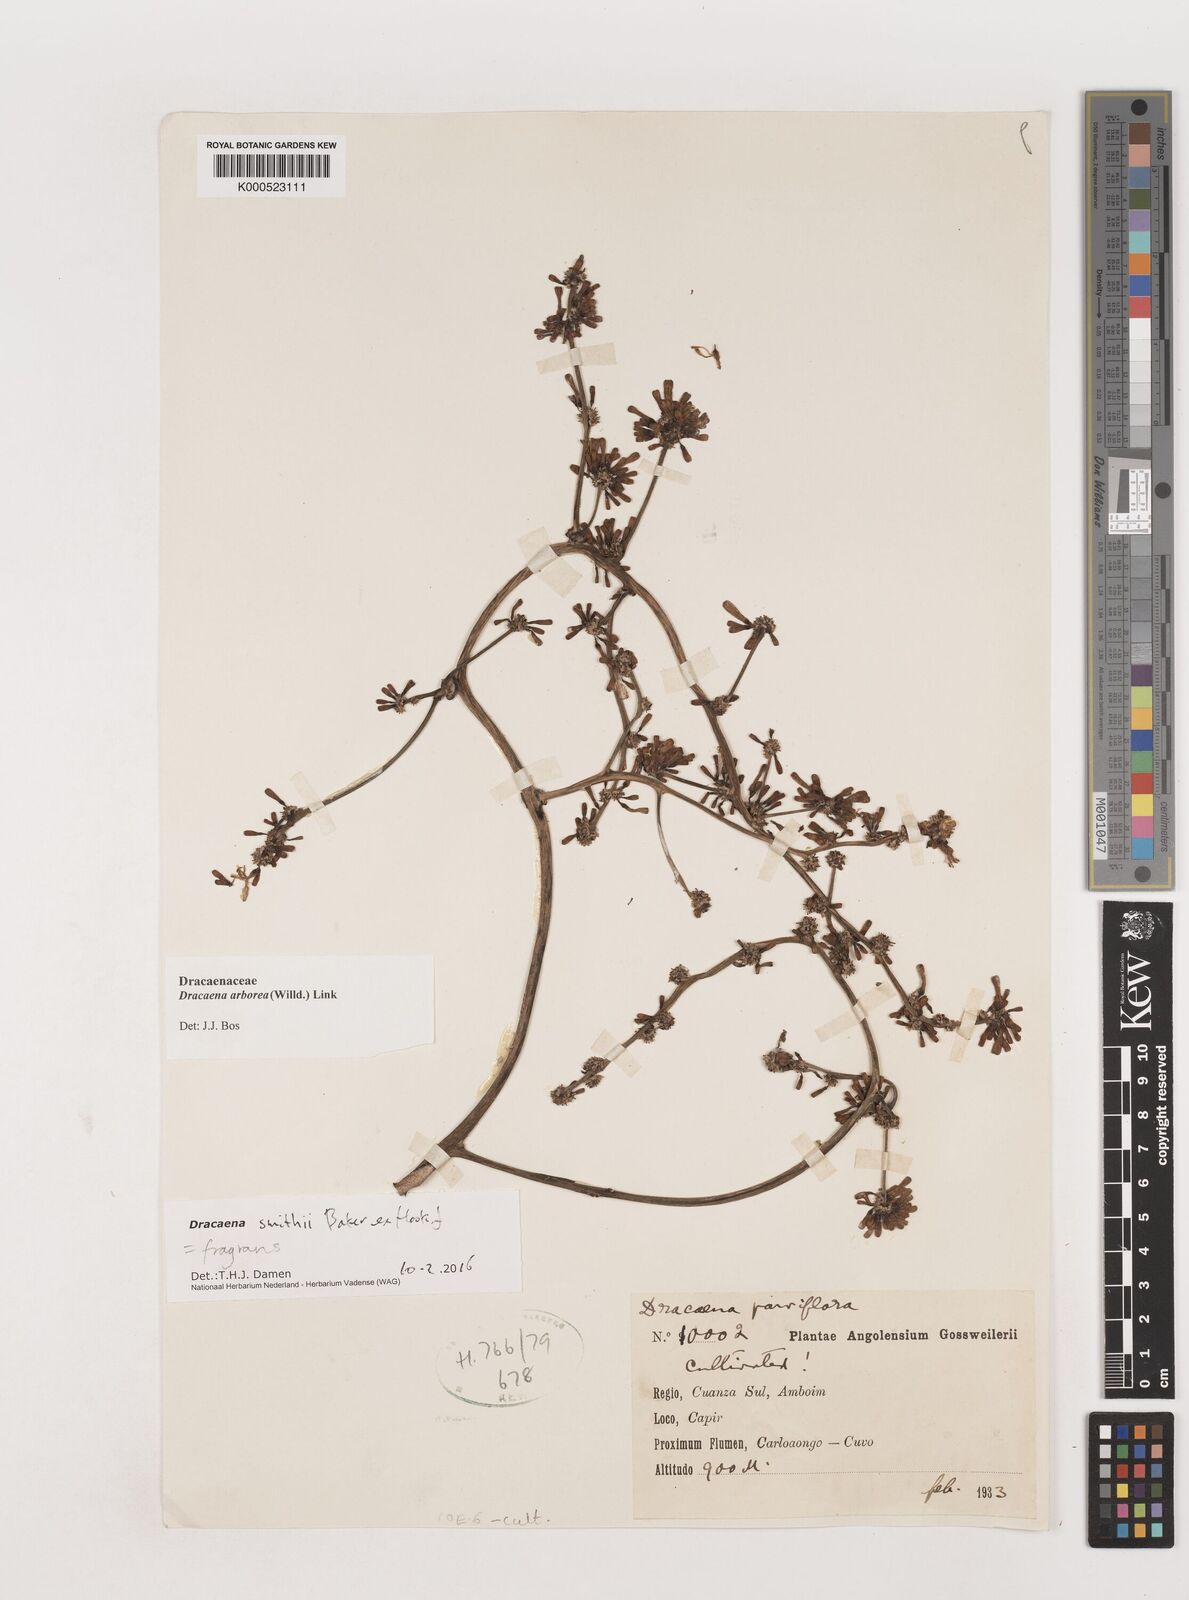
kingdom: Plantae
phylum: Tracheophyta
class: Liliopsida
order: Asparagales
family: Asparagaceae
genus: Dracaena
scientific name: Dracaena fragrans
